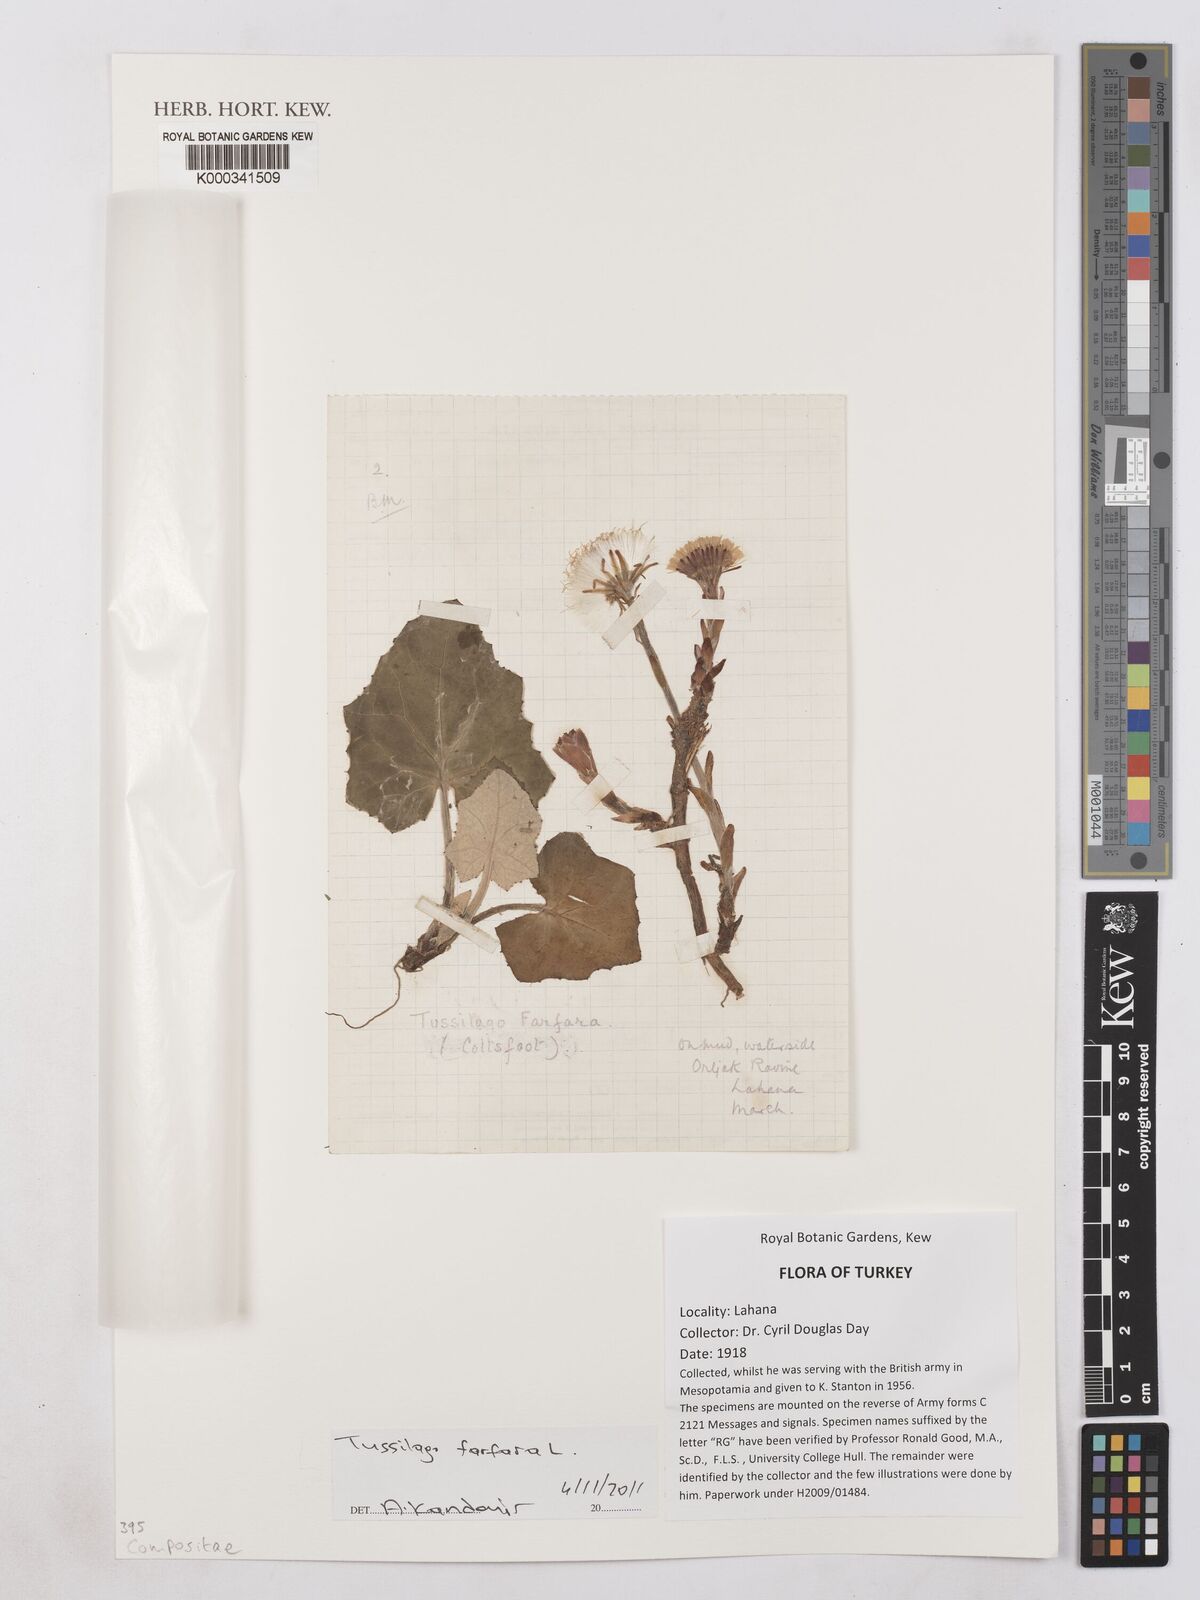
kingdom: Plantae
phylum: Tracheophyta
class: Magnoliopsida
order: Asterales
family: Asteraceae
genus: Tussilago
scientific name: Tussilago farfara
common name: Coltsfoot
